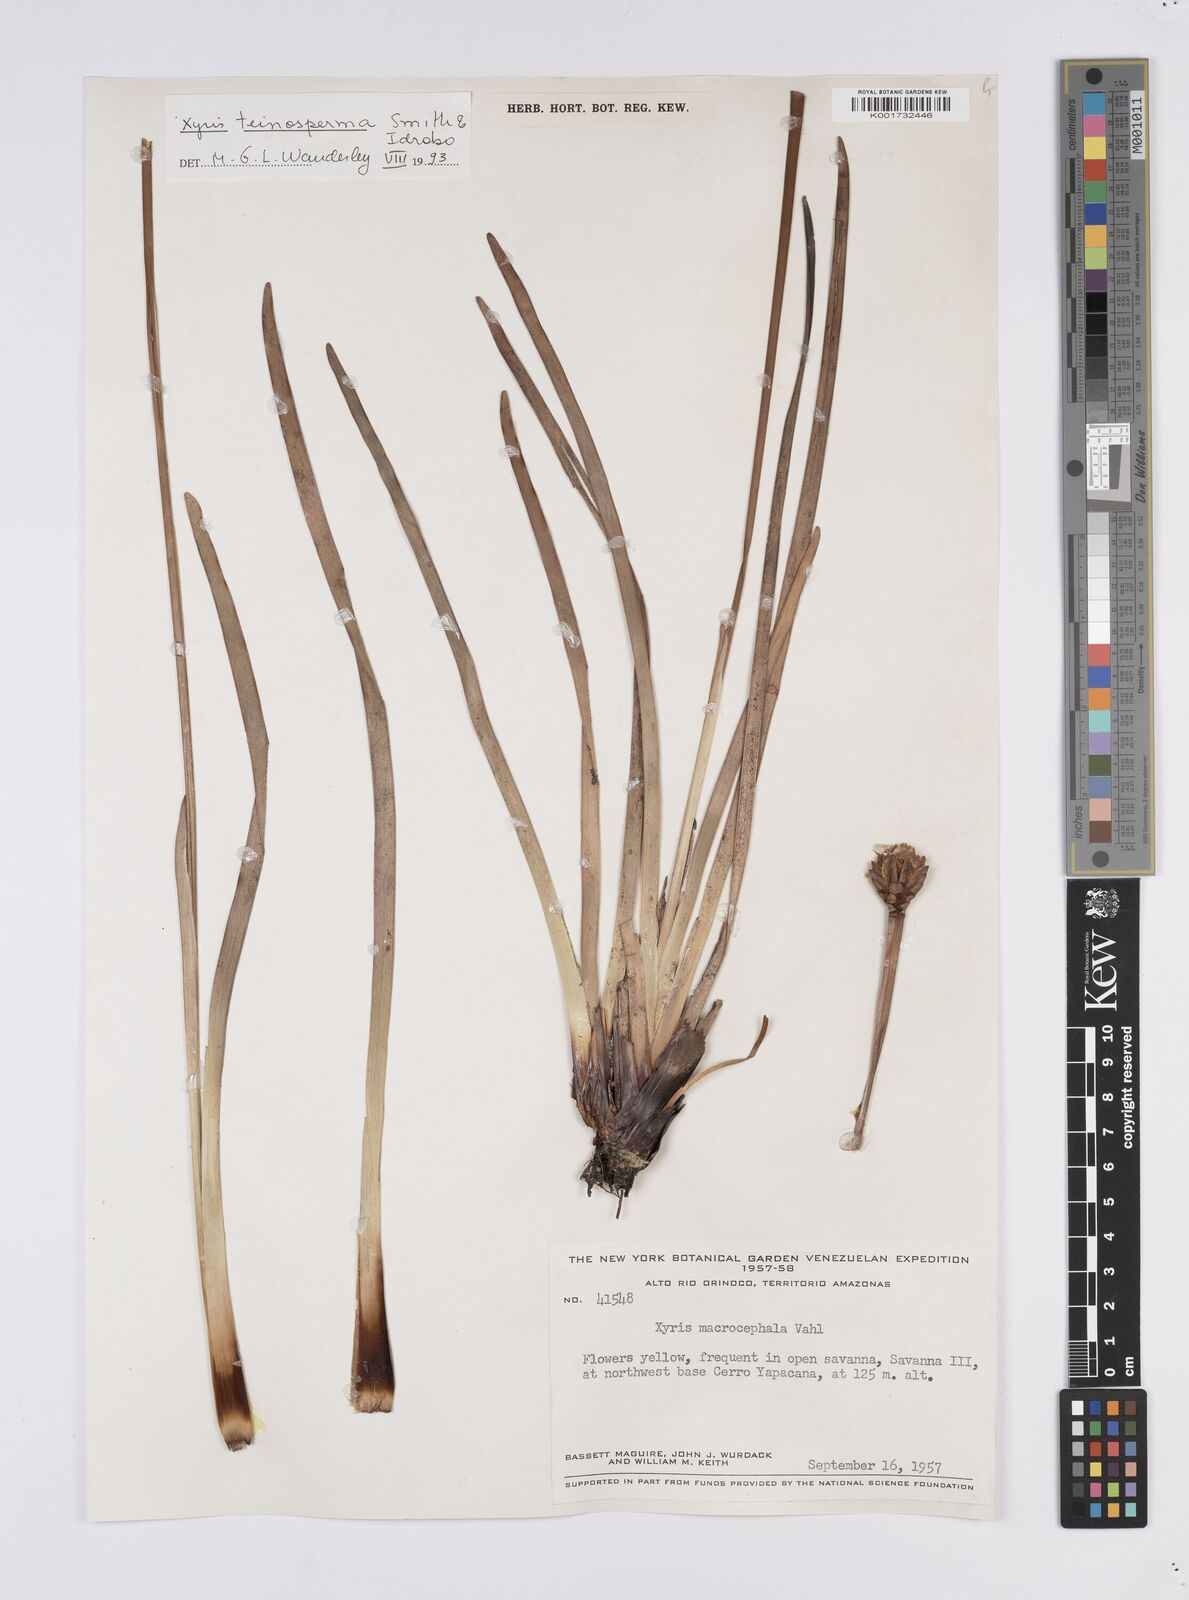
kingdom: Plantae
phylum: Tracheophyta
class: Liliopsida
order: Poales
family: Xyridaceae
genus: Xyris
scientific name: Xyris teinosperma
